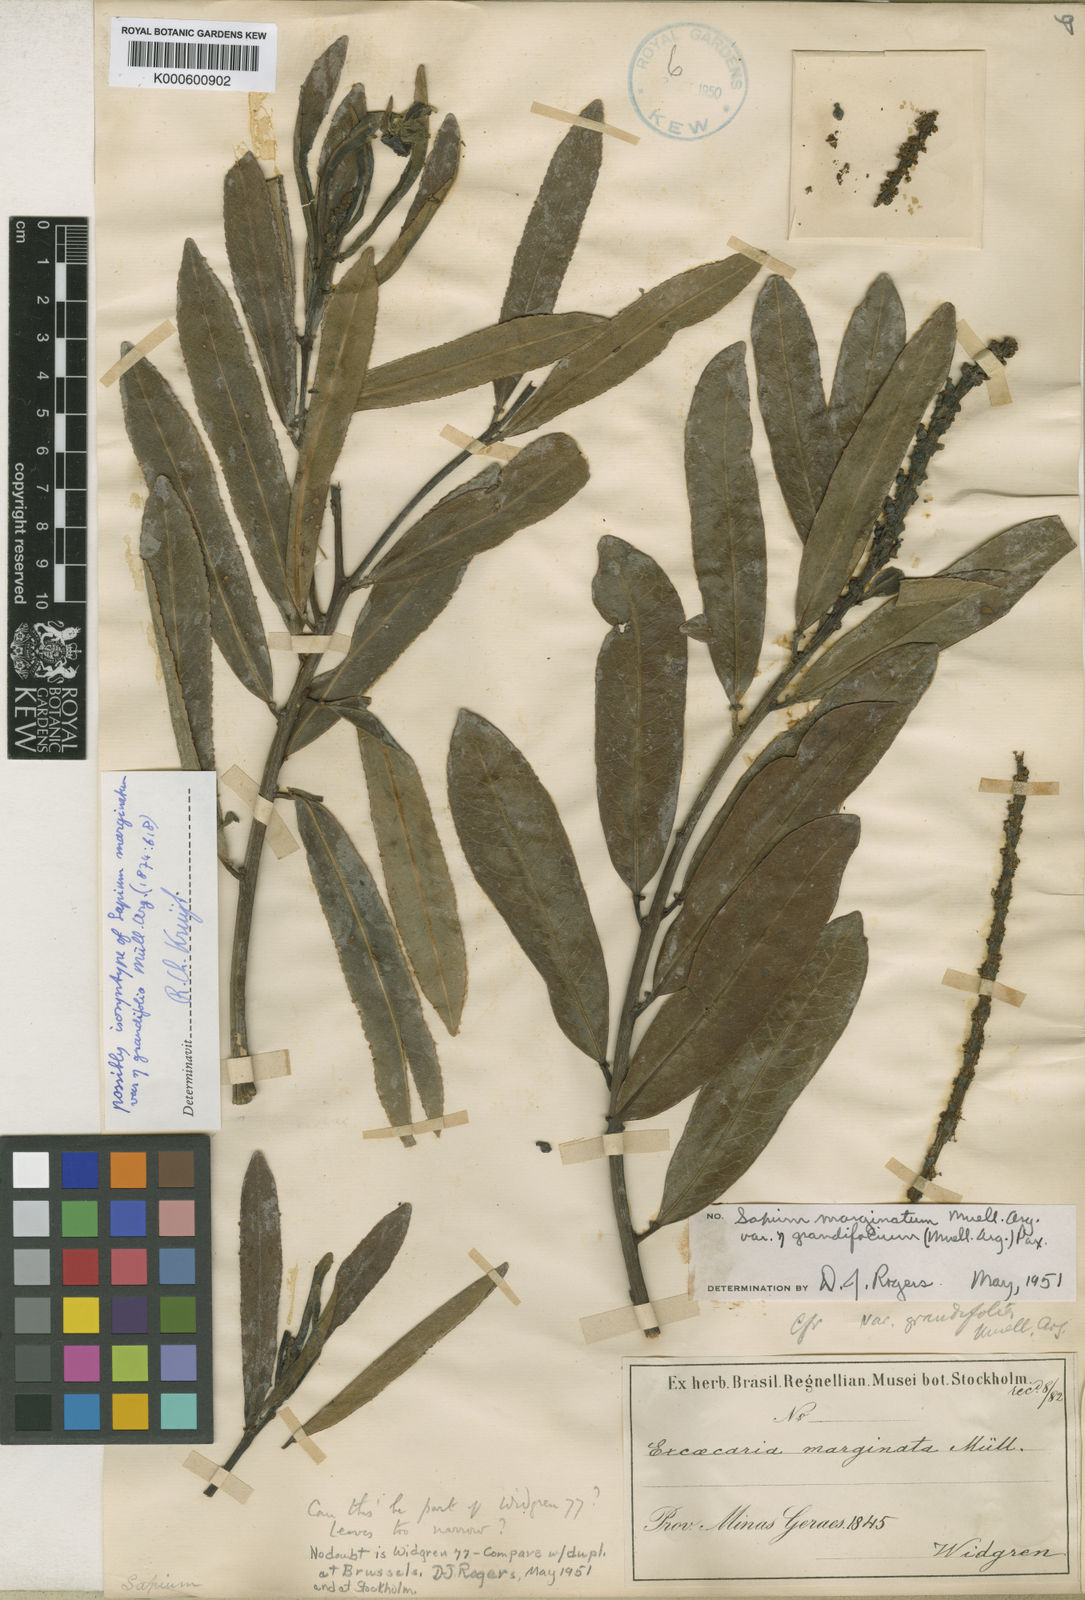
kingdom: Plantae
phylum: Tracheophyta
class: Magnoliopsida
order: Malpighiales
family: Euphorbiaceae
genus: Sapium
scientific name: Sapium
